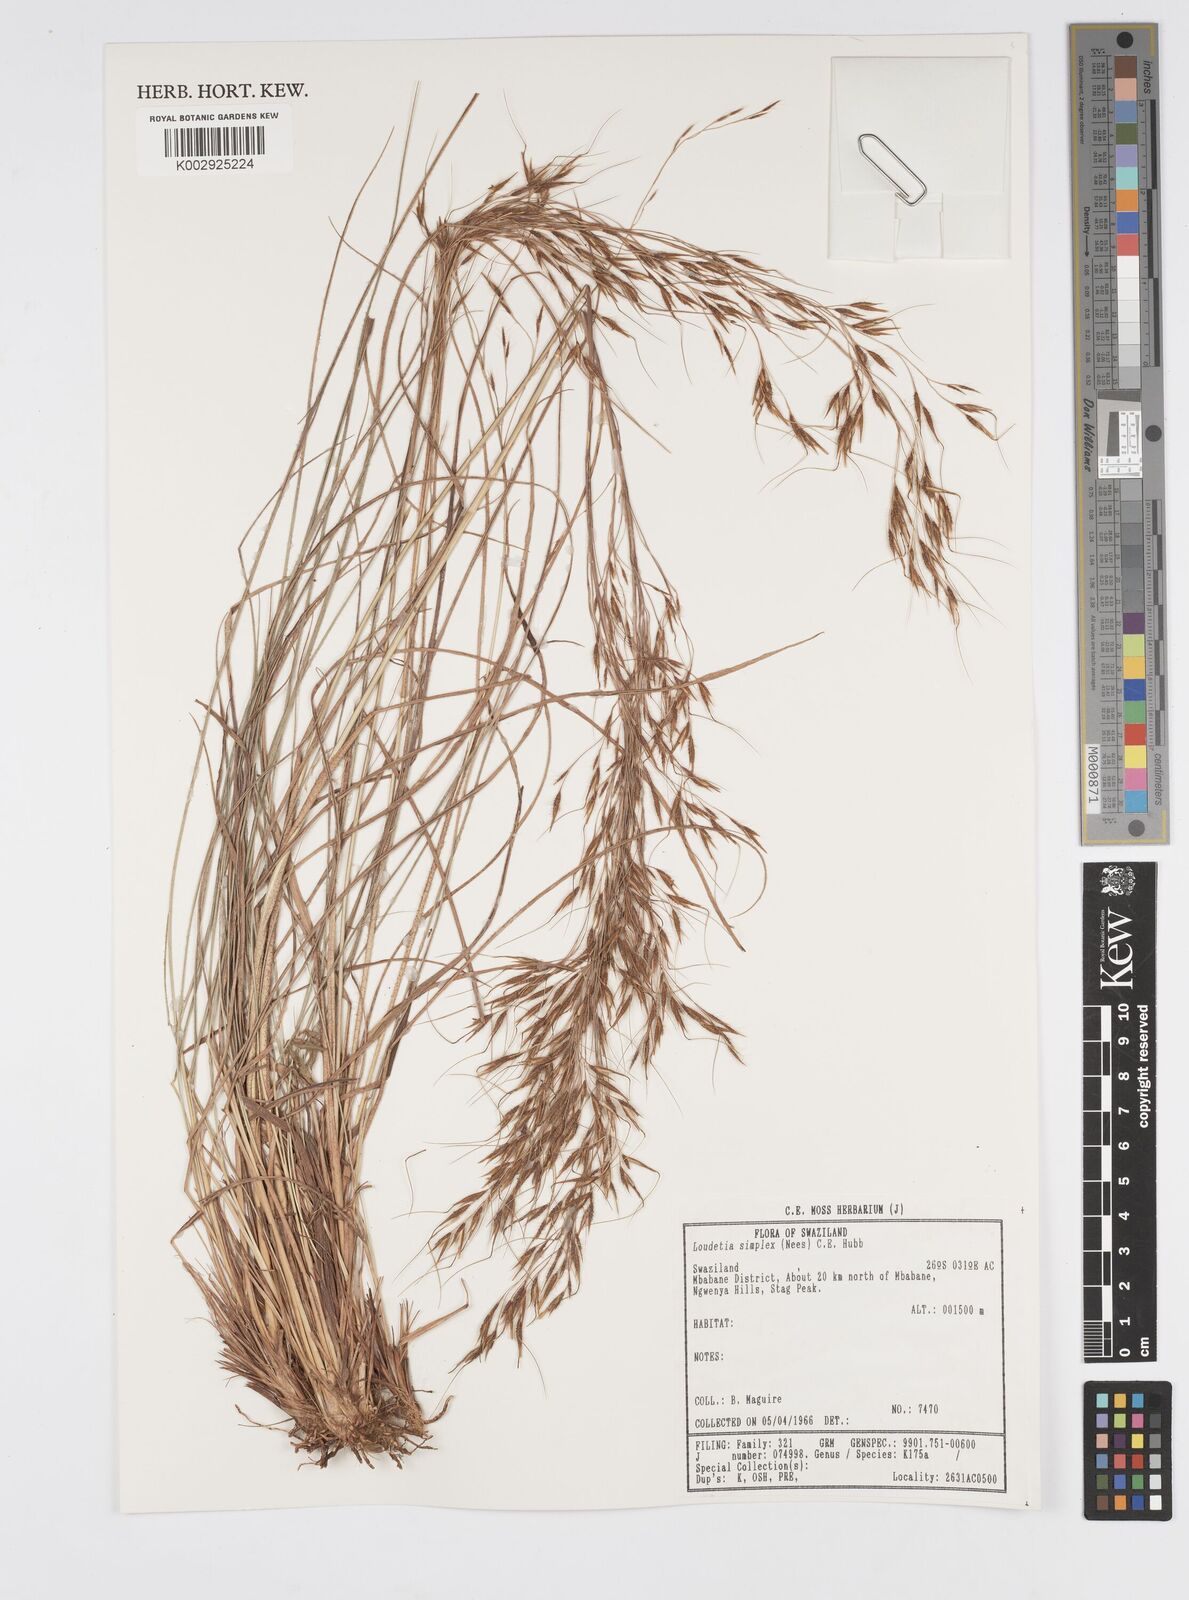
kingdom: Plantae
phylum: Tracheophyta
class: Liliopsida
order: Poales
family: Poaceae
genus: Loudetia
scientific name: Loudetia simplex
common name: Common russet grass
